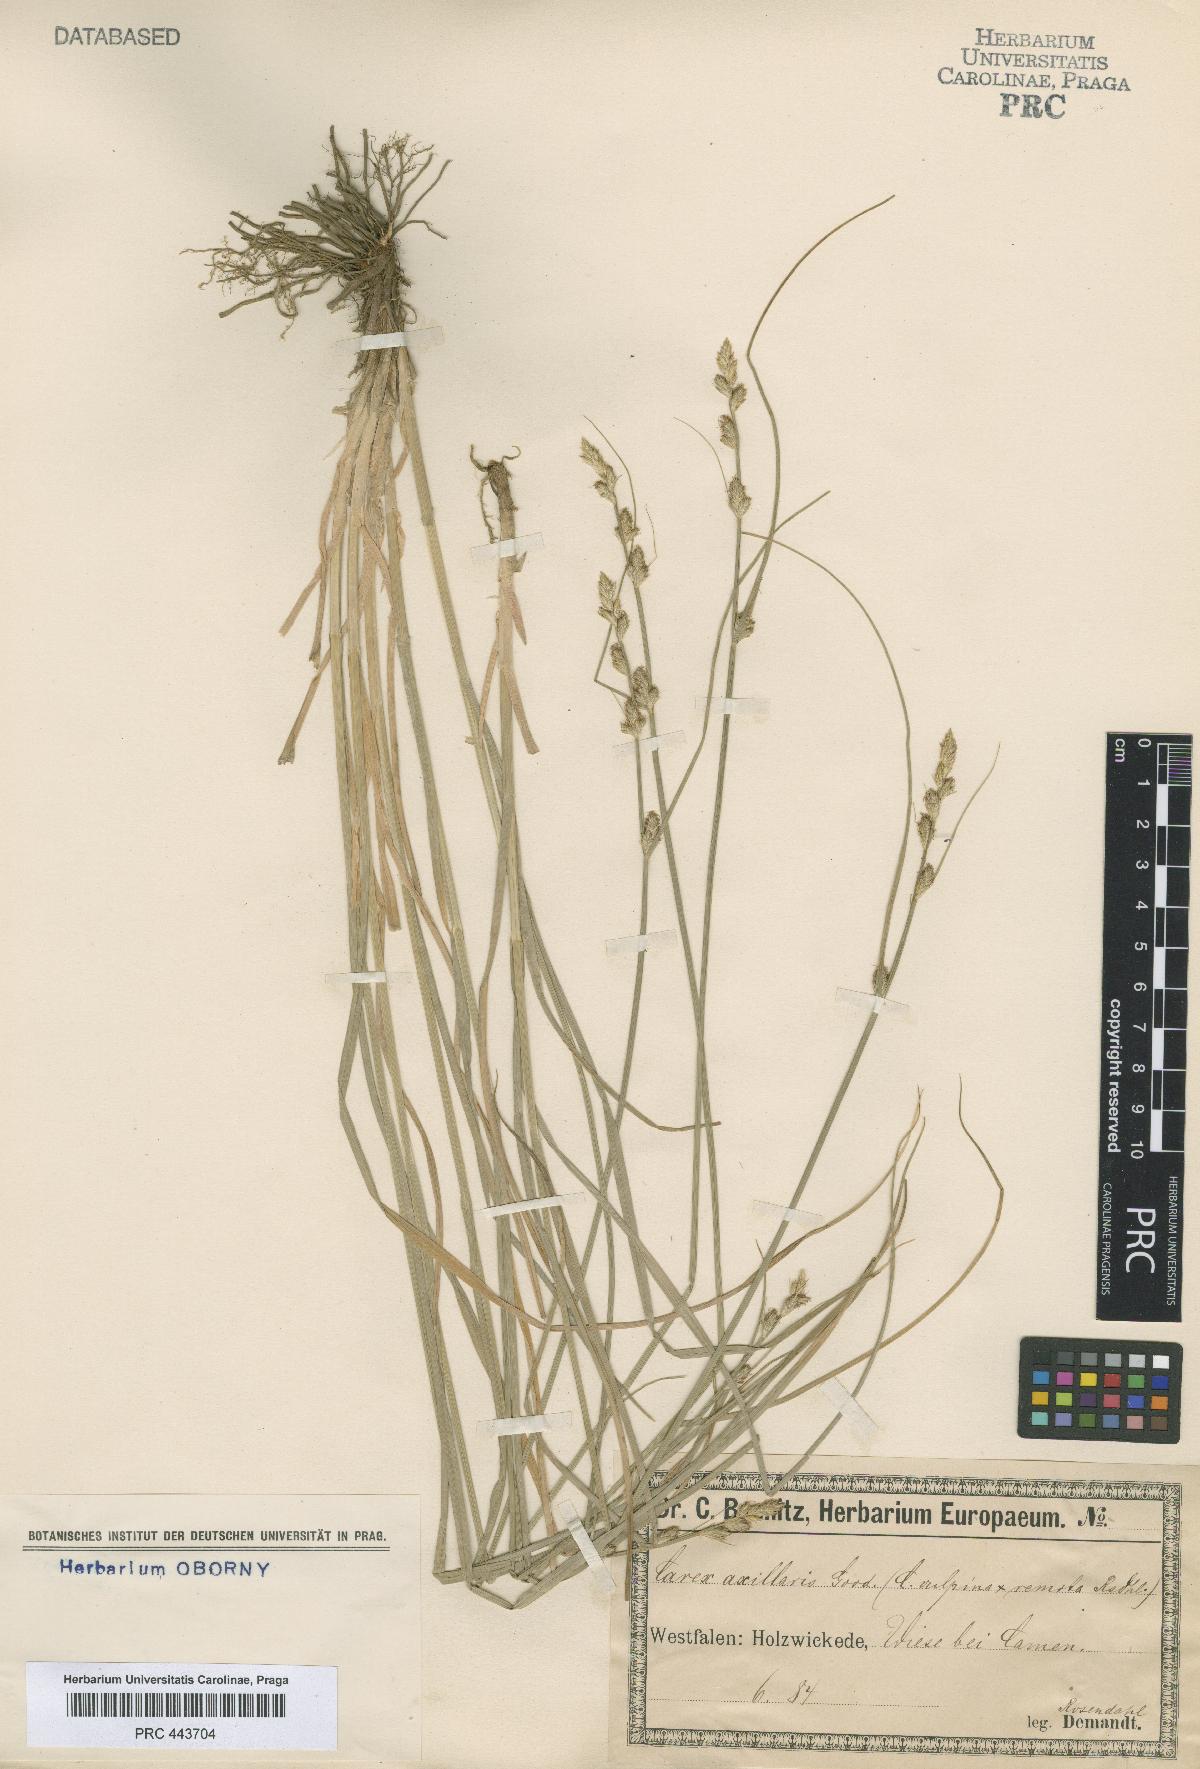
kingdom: Plantae
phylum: Tracheophyta
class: Liliopsida
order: Poales
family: Cyperaceae
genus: Carex
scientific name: Carex pseudoaxillaris
